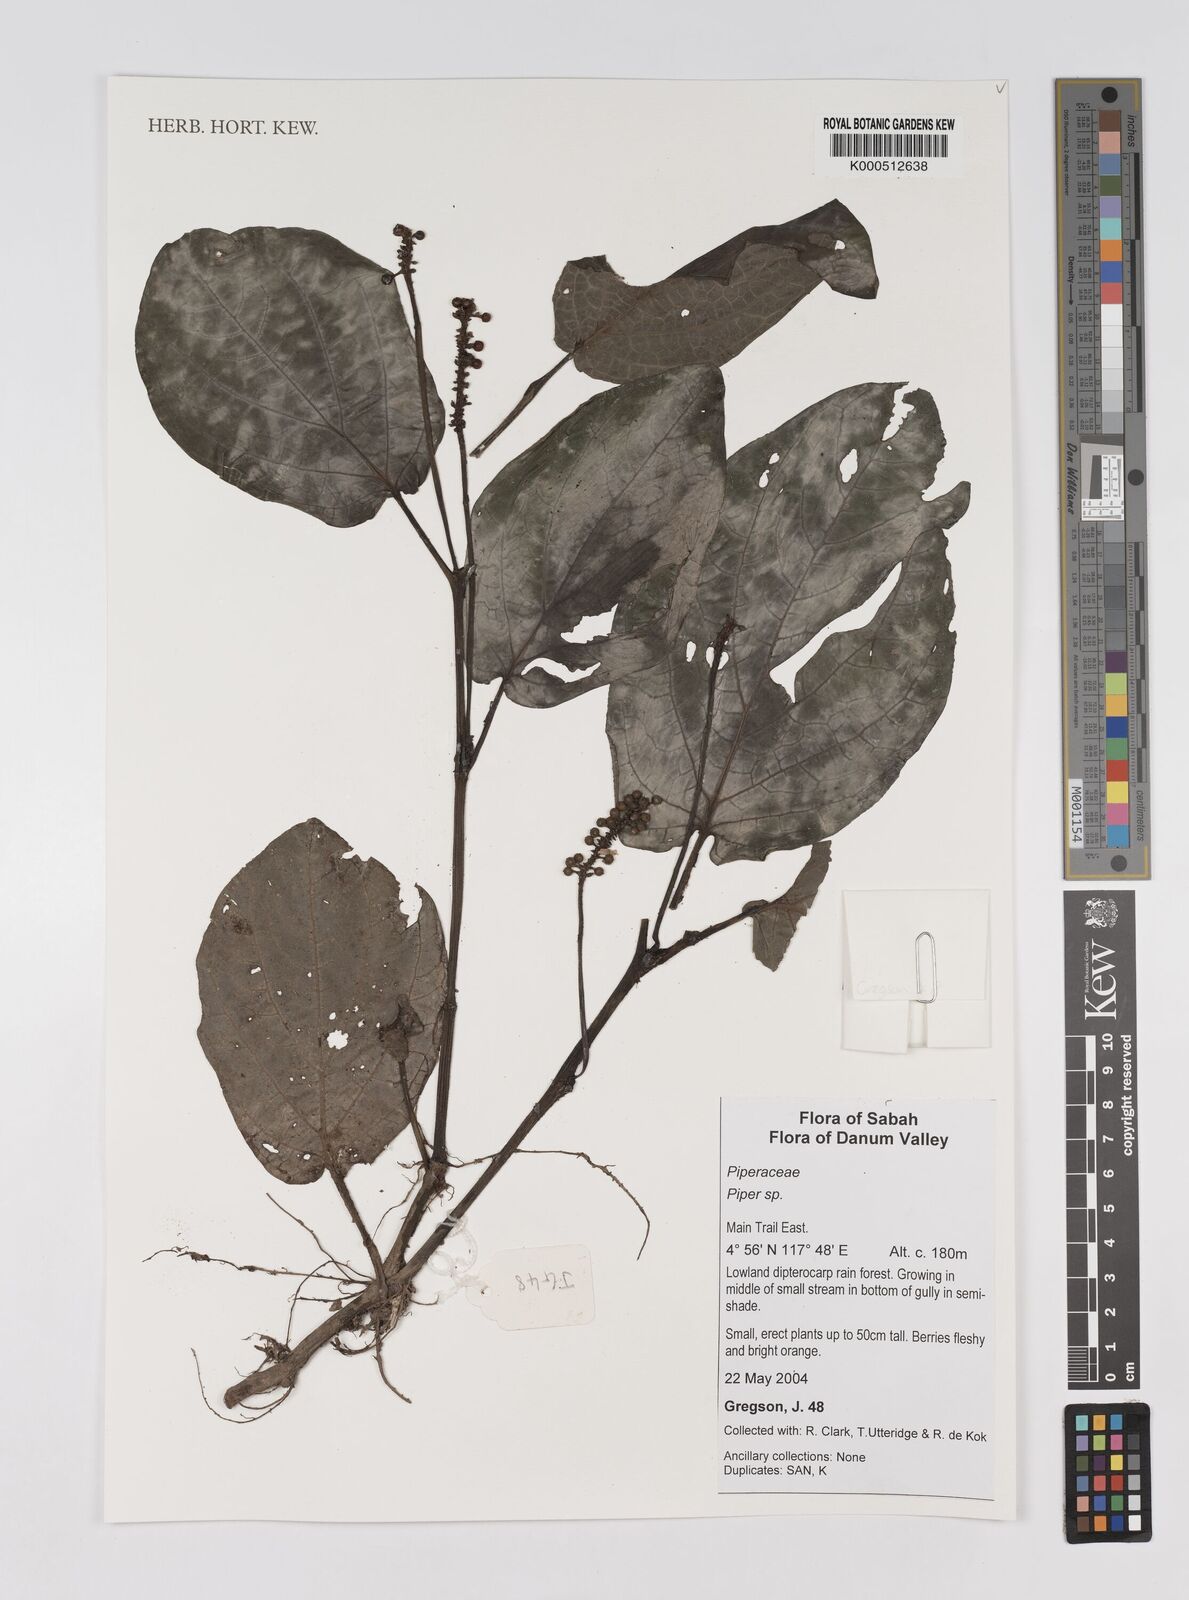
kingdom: Plantae
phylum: Tracheophyta
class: Magnoliopsida
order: Piperales
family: Piperaceae
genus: Piper
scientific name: Piper
